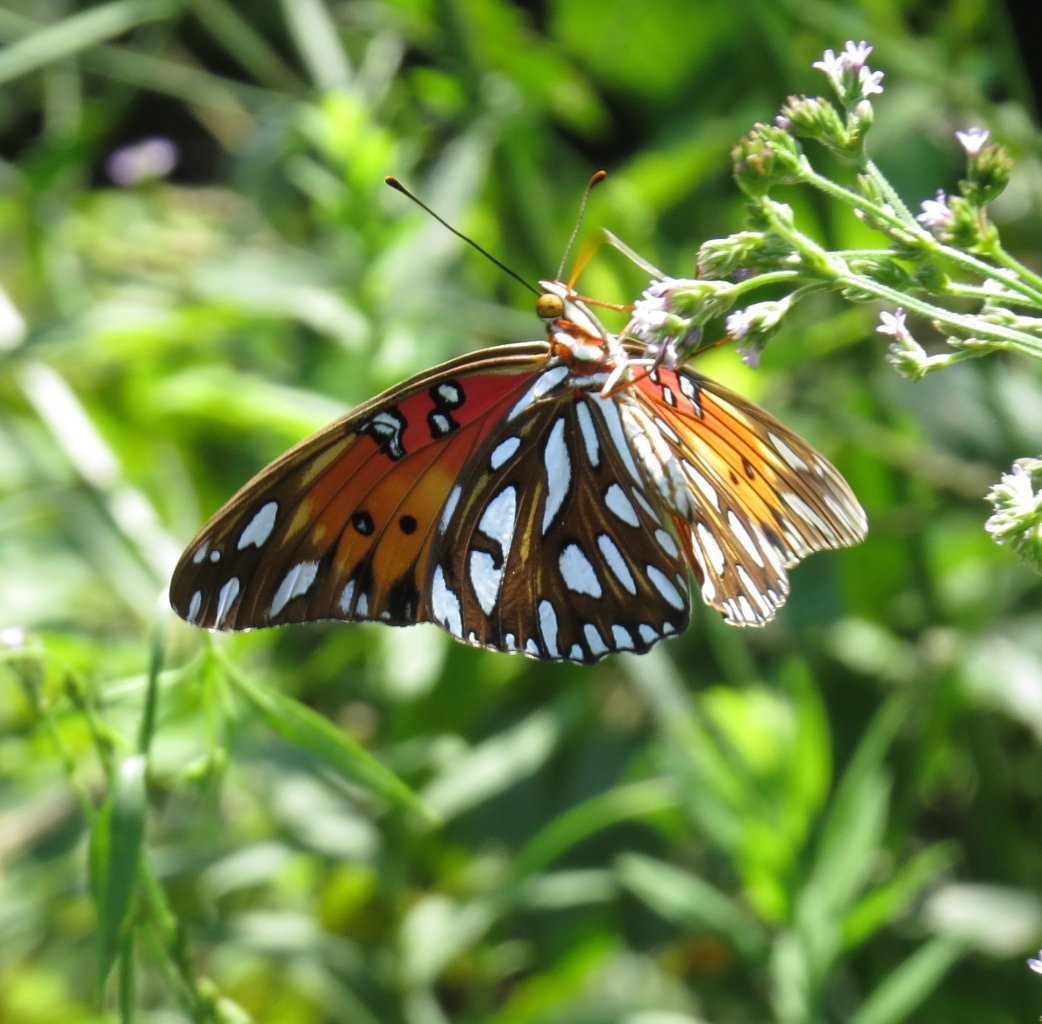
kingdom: Animalia
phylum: Arthropoda
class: Insecta
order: Lepidoptera
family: Nymphalidae
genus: Dione
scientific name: Dione vanillae
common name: Gulf Fritillary
